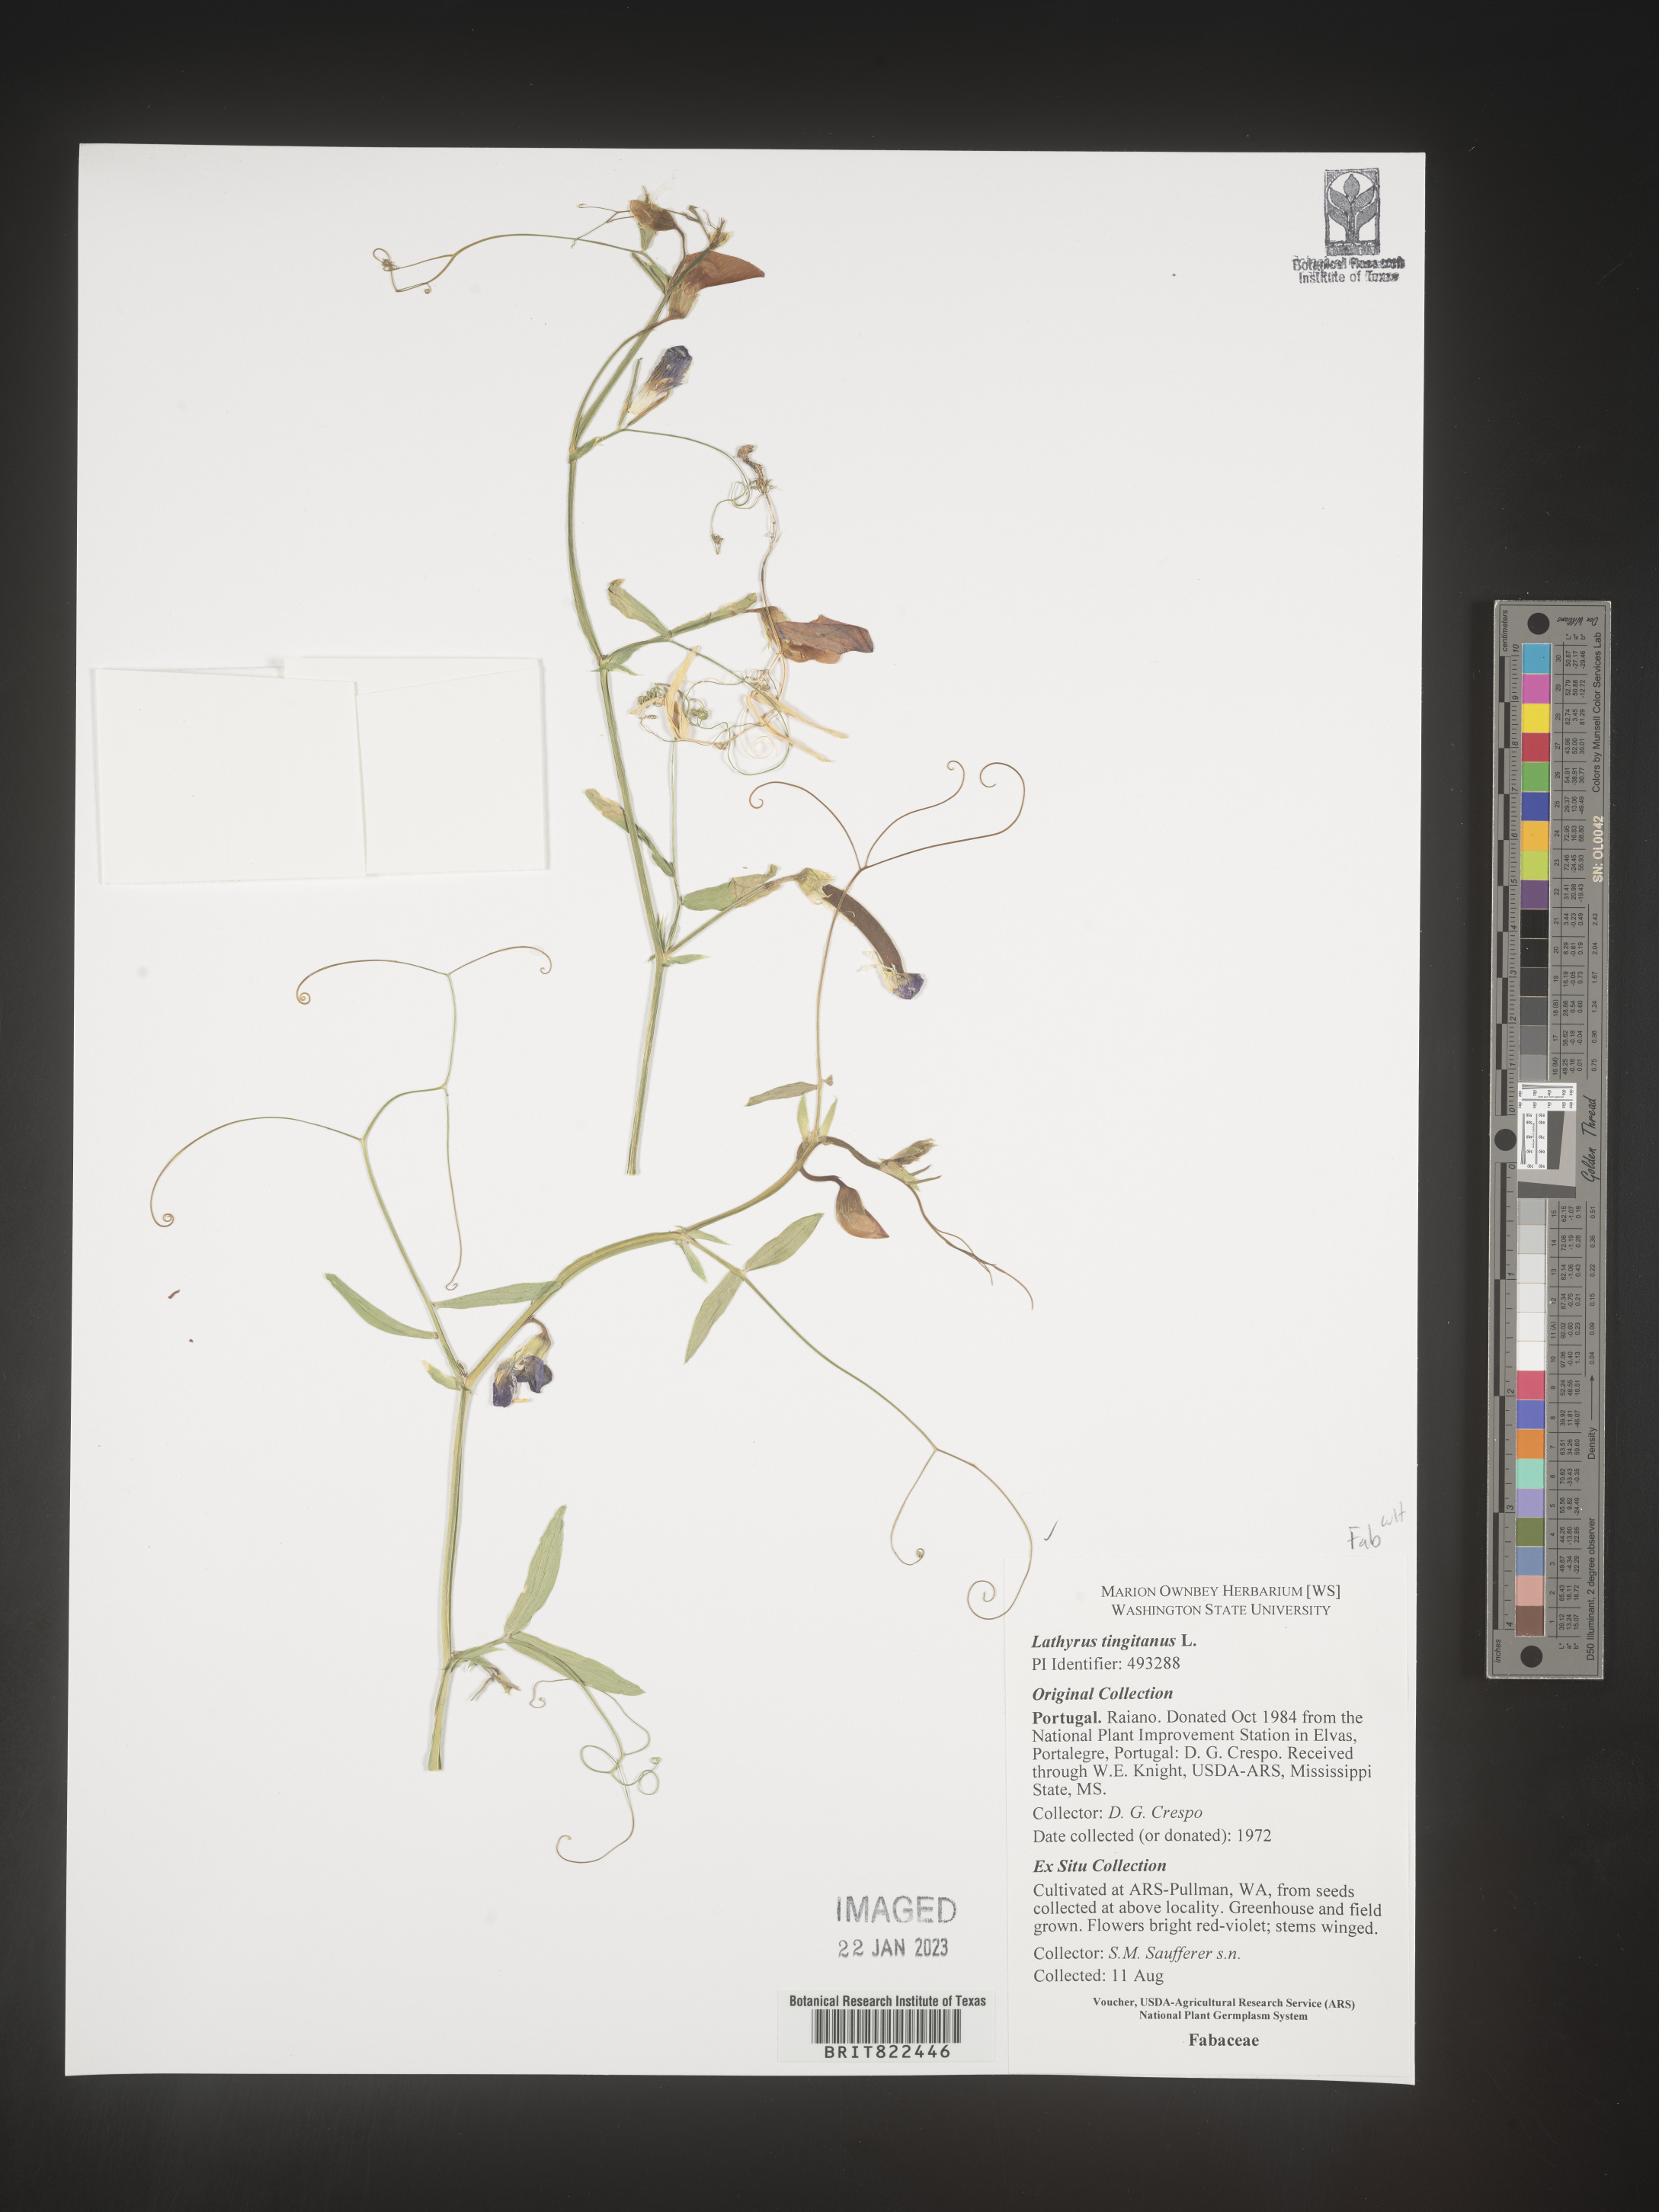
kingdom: Plantae
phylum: Tracheophyta
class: Magnoliopsida
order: Fabales
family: Fabaceae
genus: Lathyrus
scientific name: Lathyrus
